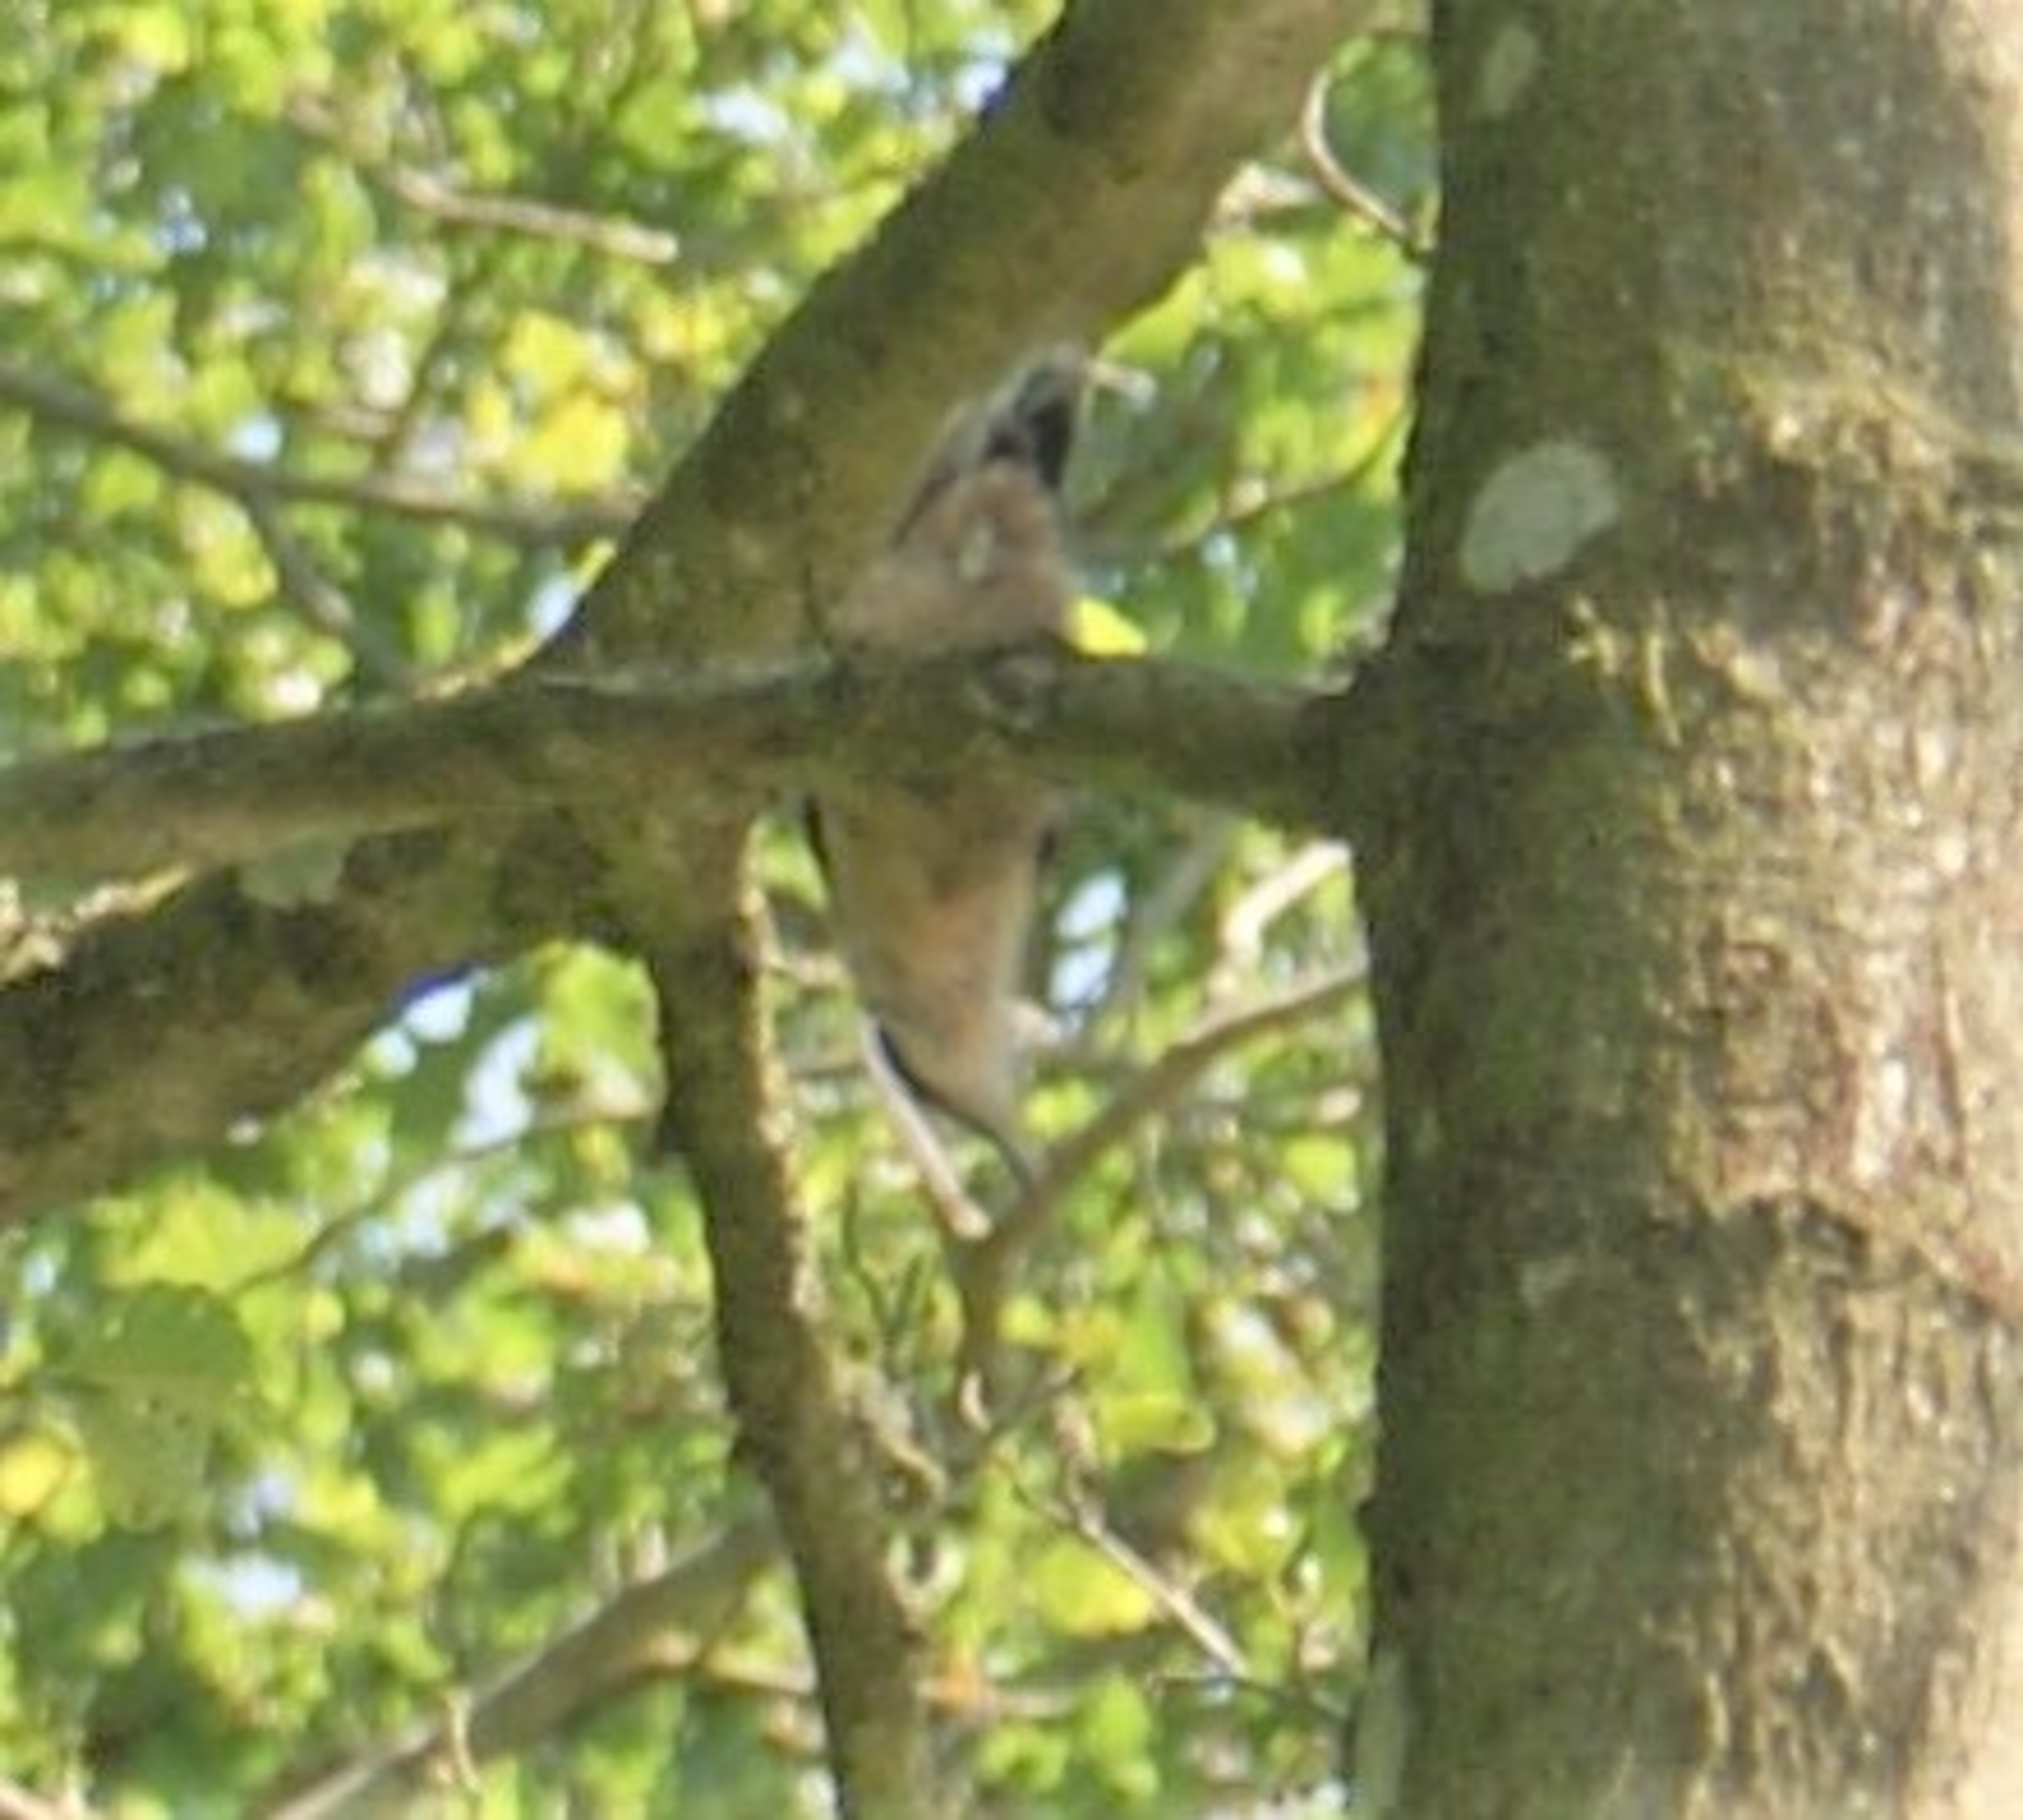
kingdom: Animalia
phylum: Chordata
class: Aves
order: Passeriformes
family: Sittidae
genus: Sitta
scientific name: Sitta europaea
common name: Spætmejse
